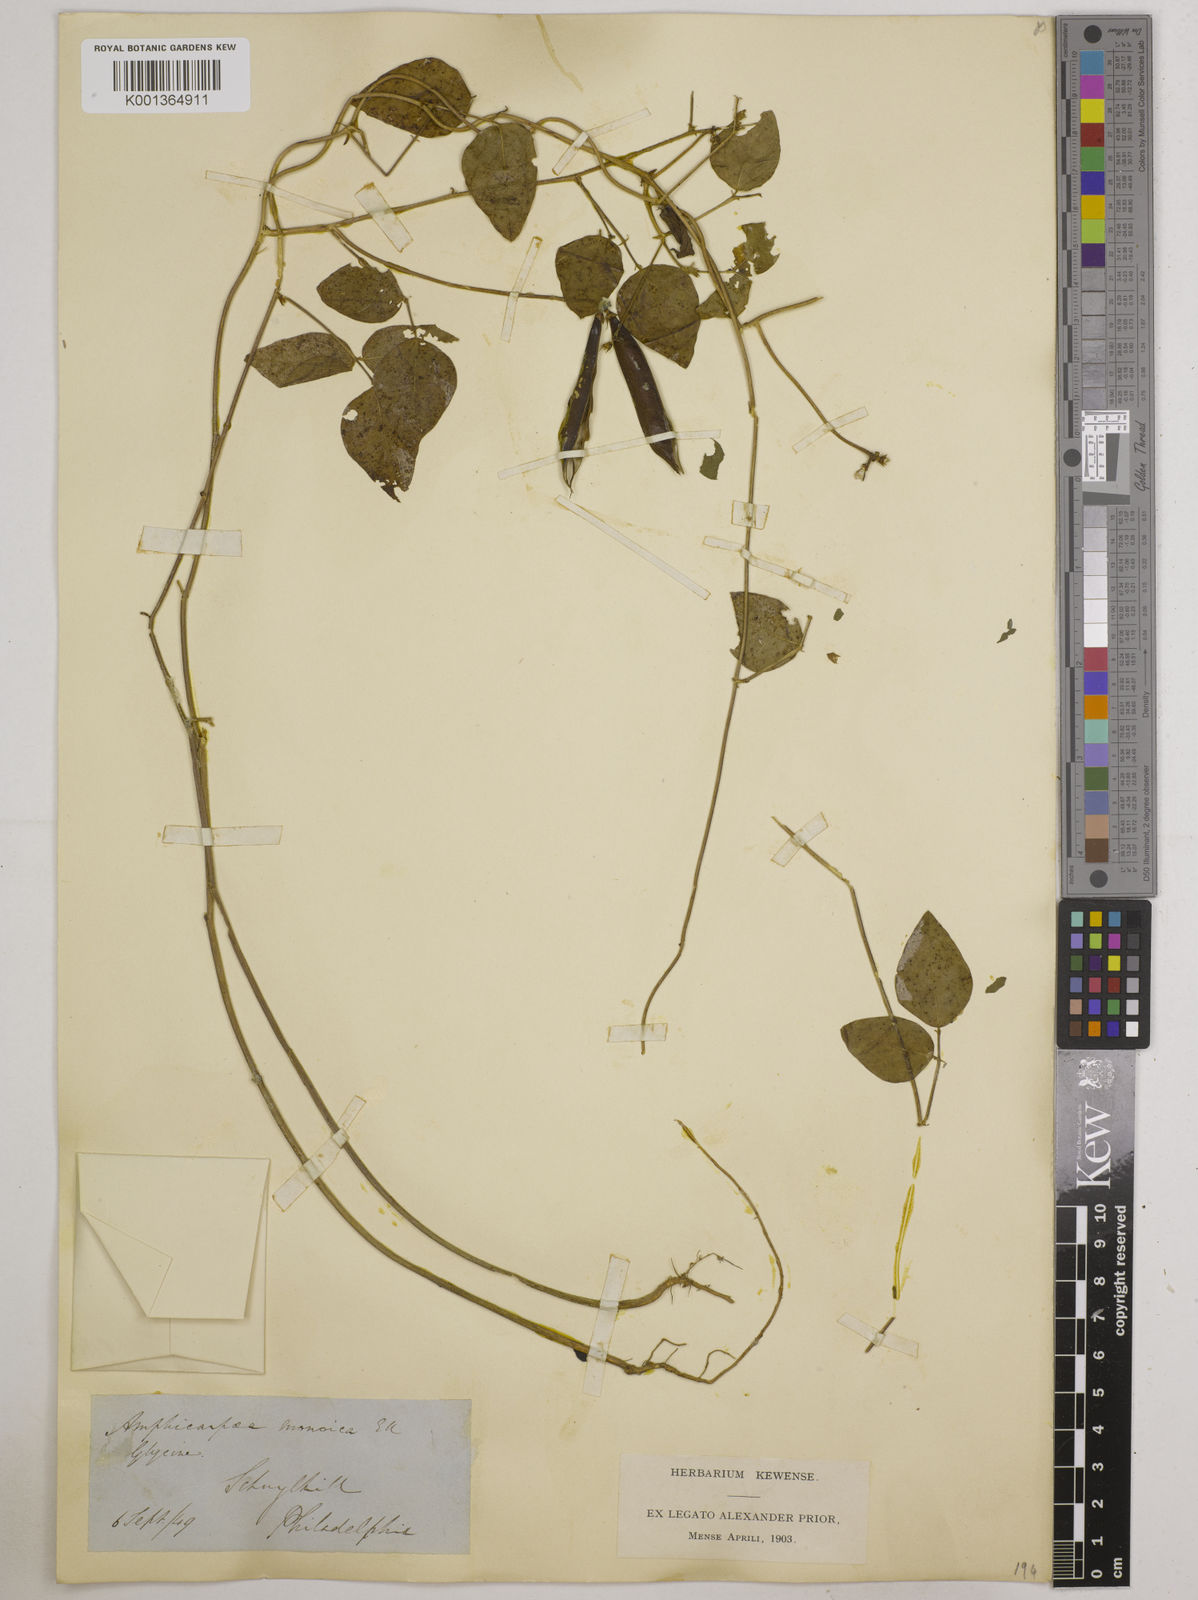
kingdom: Plantae
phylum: Tracheophyta
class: Magnoliopsida
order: Fabales
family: Fabaceae
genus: Strophostyles
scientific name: Strophostyles
